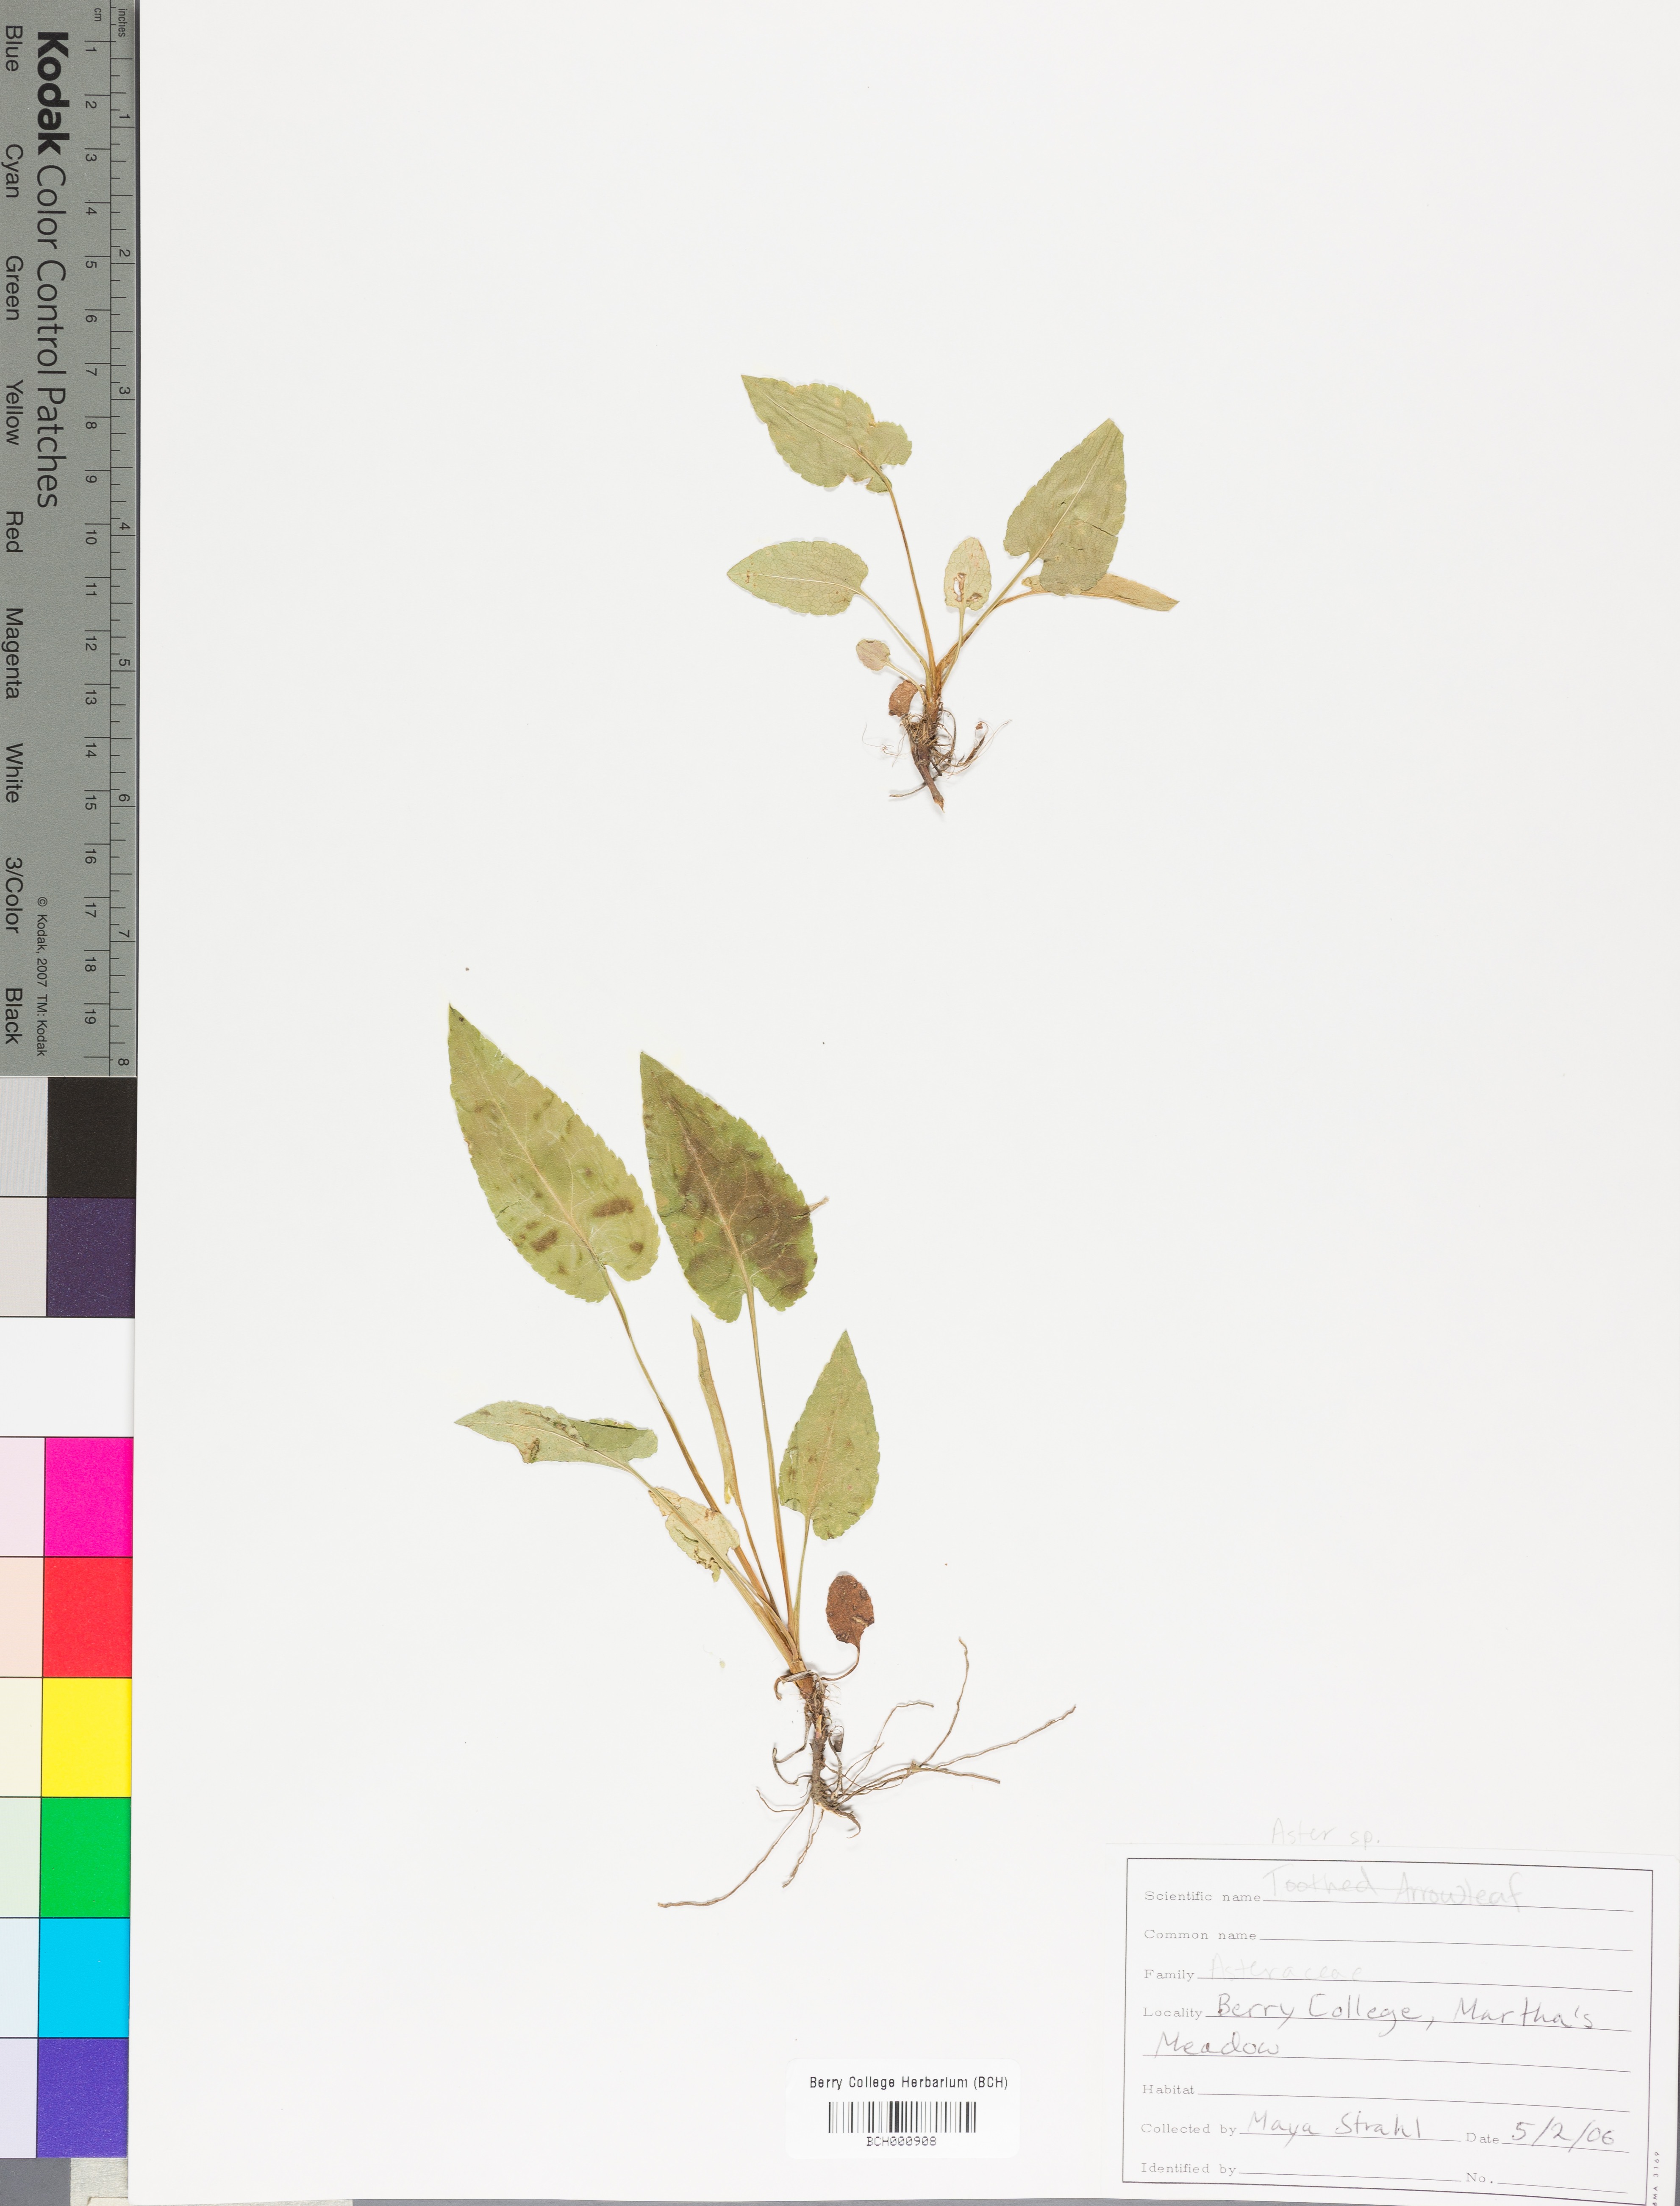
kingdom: Plantae
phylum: Tracheophyta
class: Magnoliopsida
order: Lamiales
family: Acanthaceae
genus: Adhatoda
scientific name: Adhatoda
